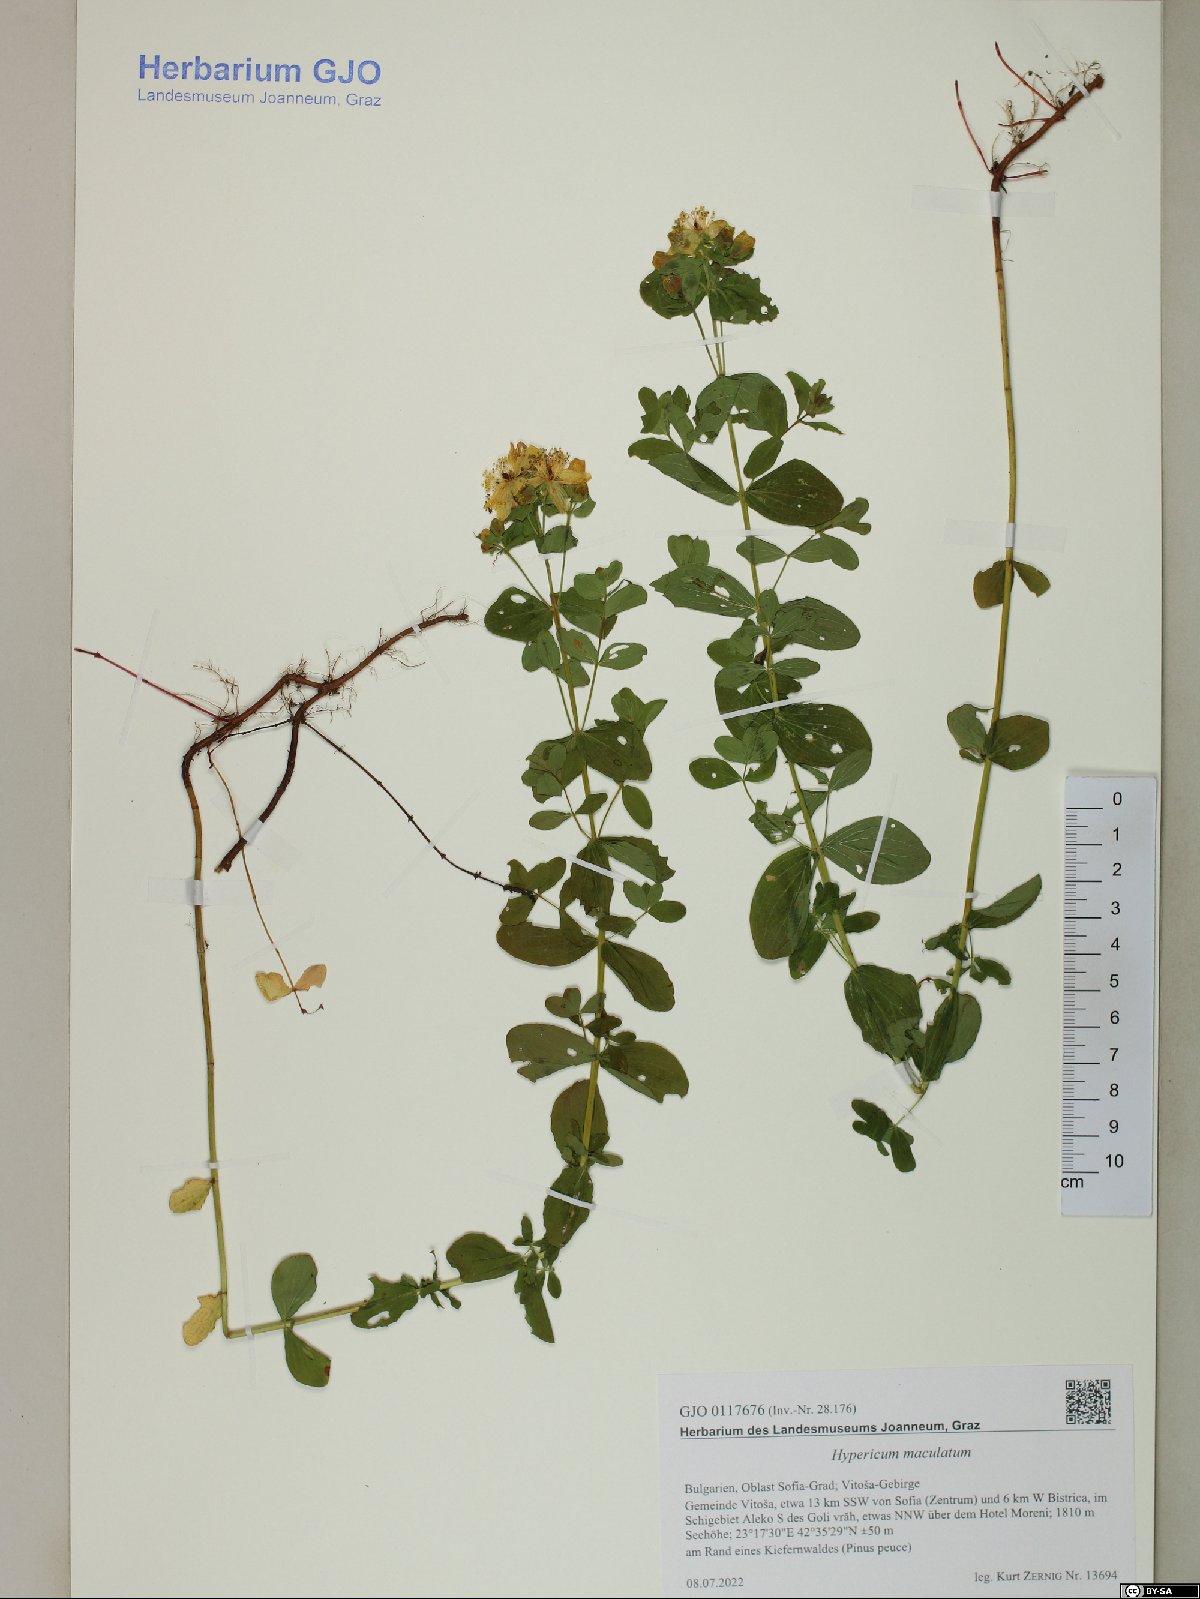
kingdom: Plantae
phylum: Tracheophyta
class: Magnoliopsida
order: Malpighiales
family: Hypericaceae
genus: Hypericum
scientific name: Hypericum maculatum
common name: Imperforate st. john's-wort
